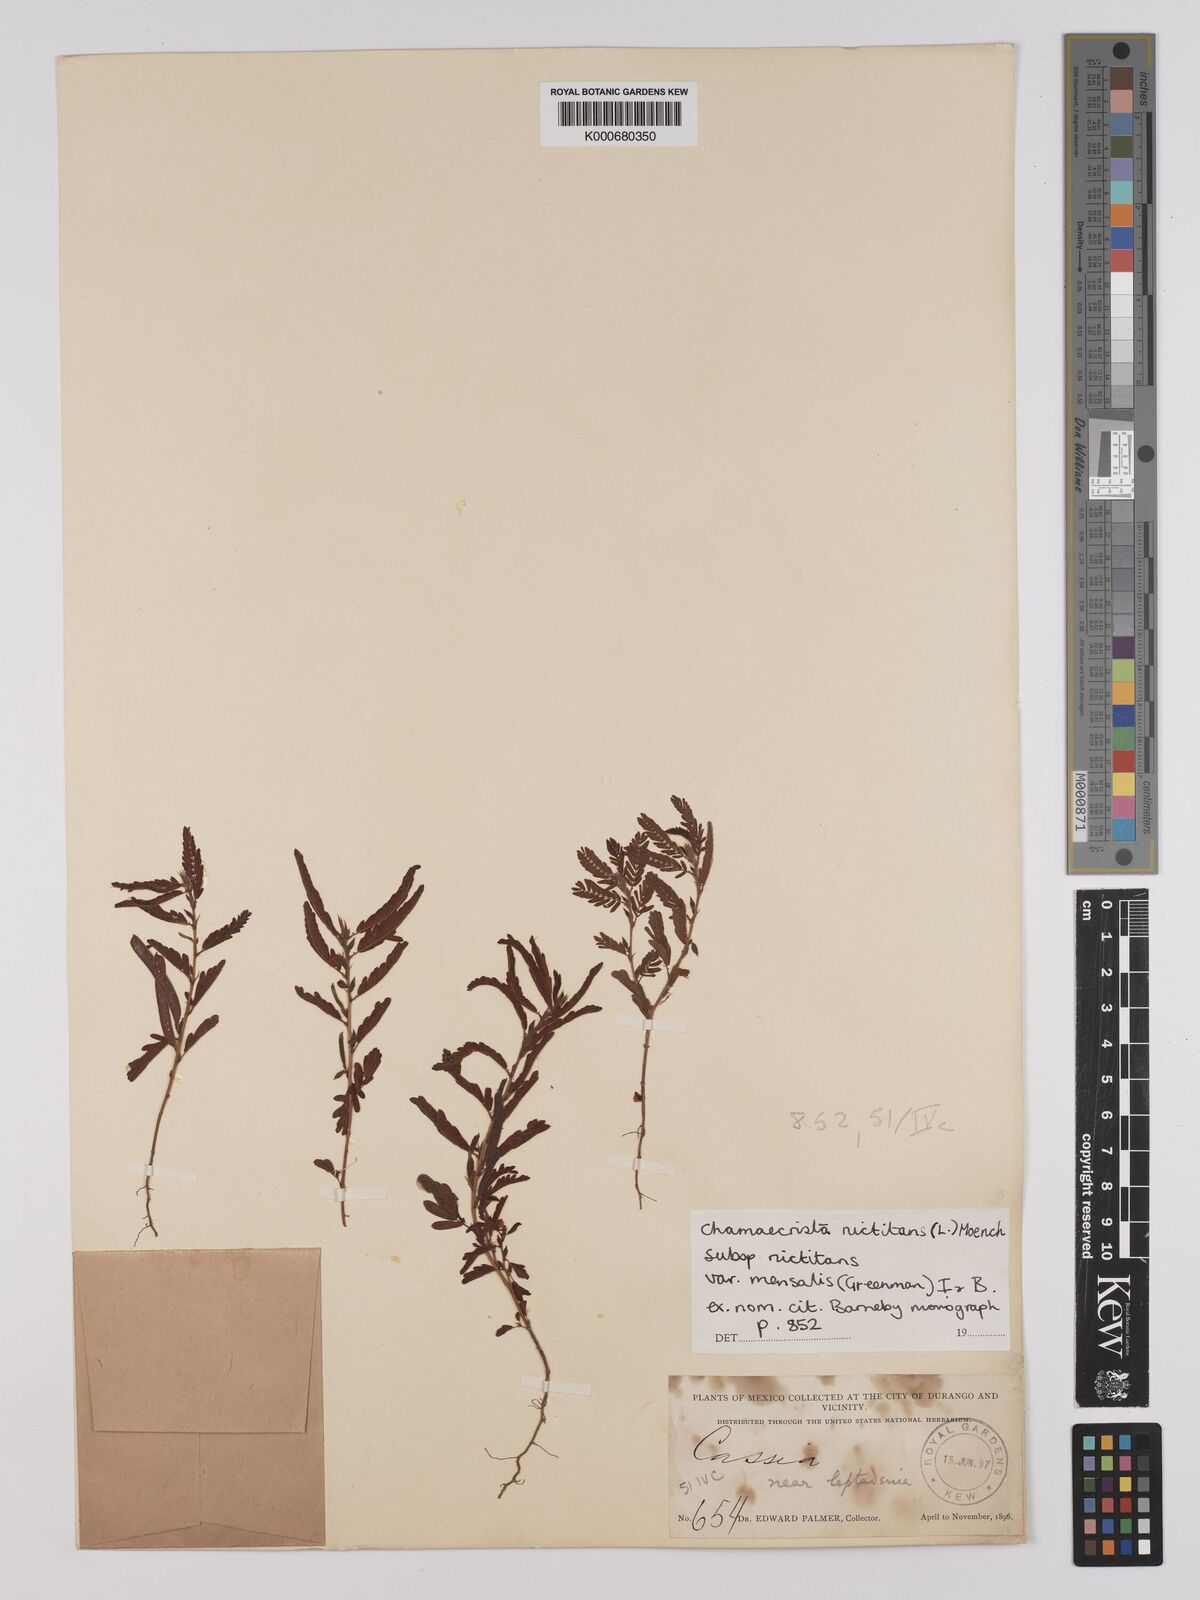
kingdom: Plantae
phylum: Tracheophyta
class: Magnoliopsida
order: Fabales
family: Fabaceae
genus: Chamaecrista
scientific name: Chamaecrista nictitans
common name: Sensitive cassia
